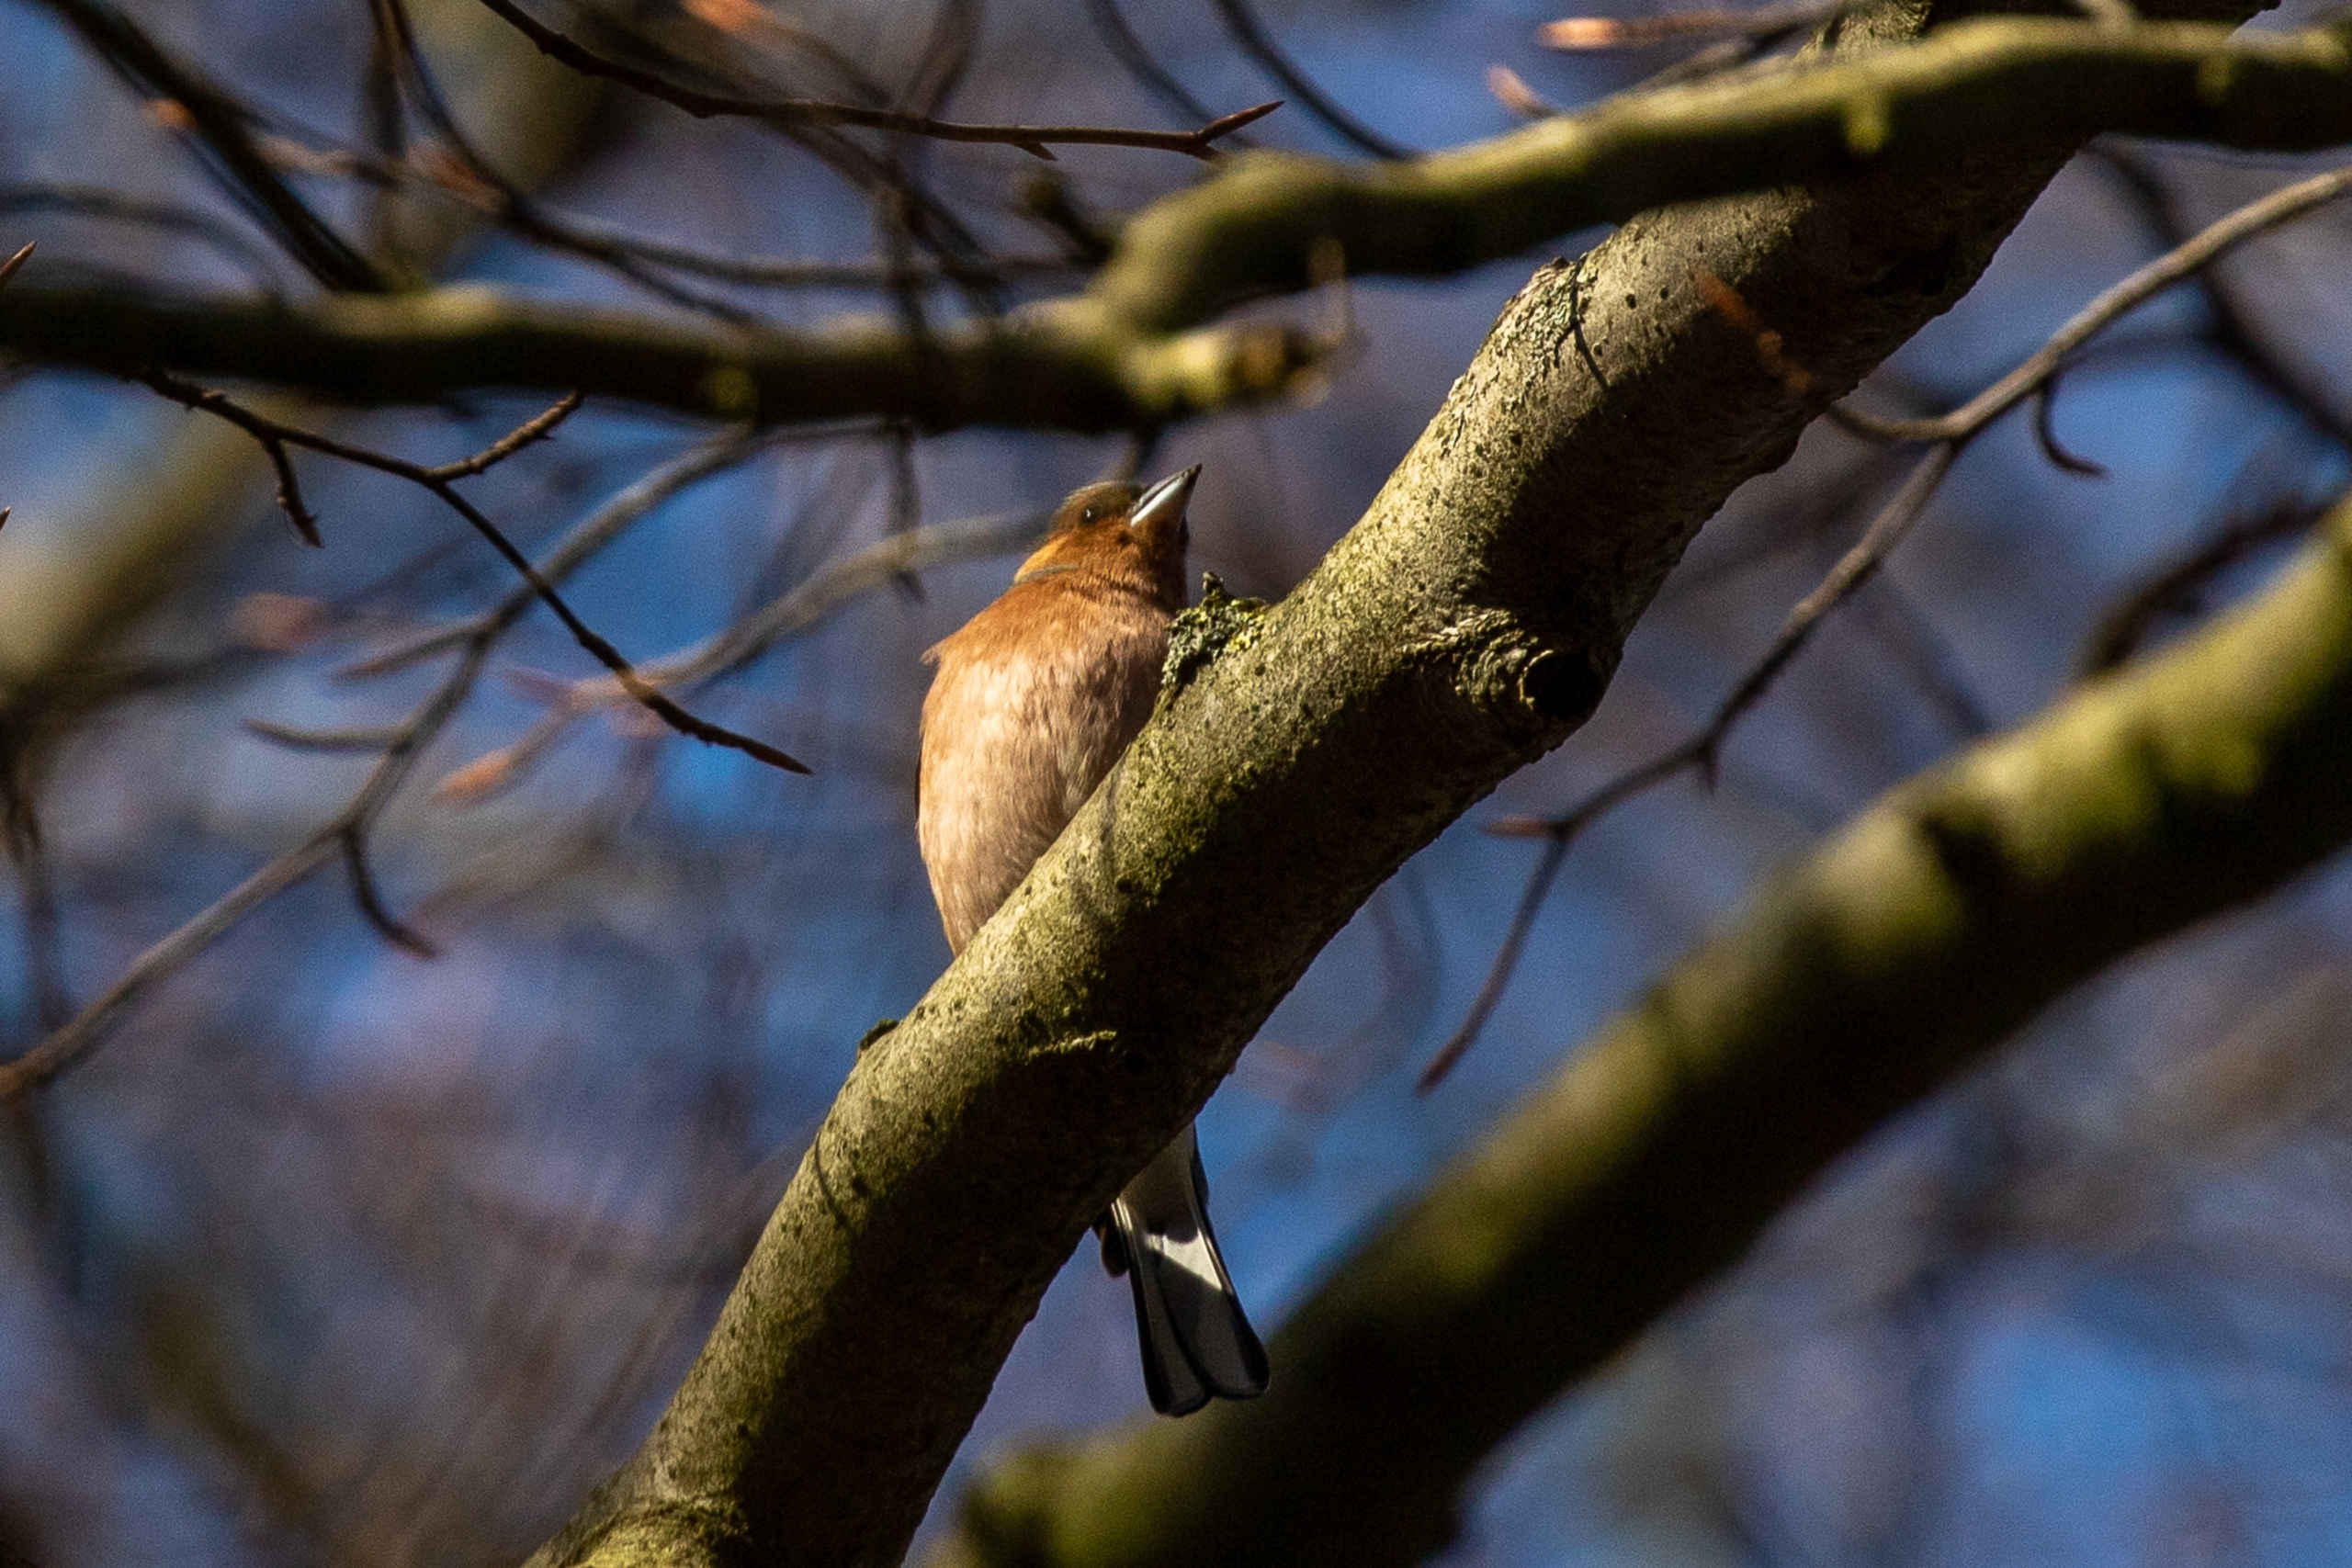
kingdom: Animalia
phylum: Chordata
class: Aves
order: Passeriformes
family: Fringillidae
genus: Fringilla
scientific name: Fringilla coelebs
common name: Bogfinke
